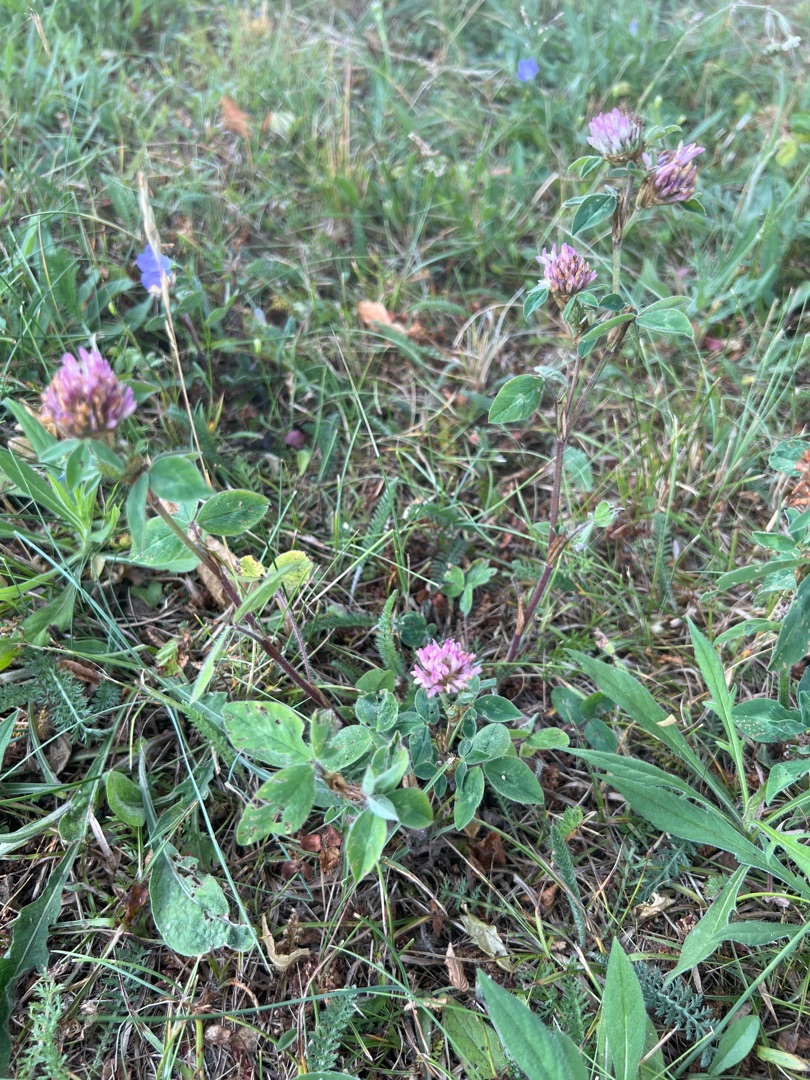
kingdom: Plantae
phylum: Tracheophyta
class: Magnoliopsida
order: Fabales
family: Fabaceae
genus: Trifolium
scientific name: Trifolium pratense
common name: Rød-kløver
